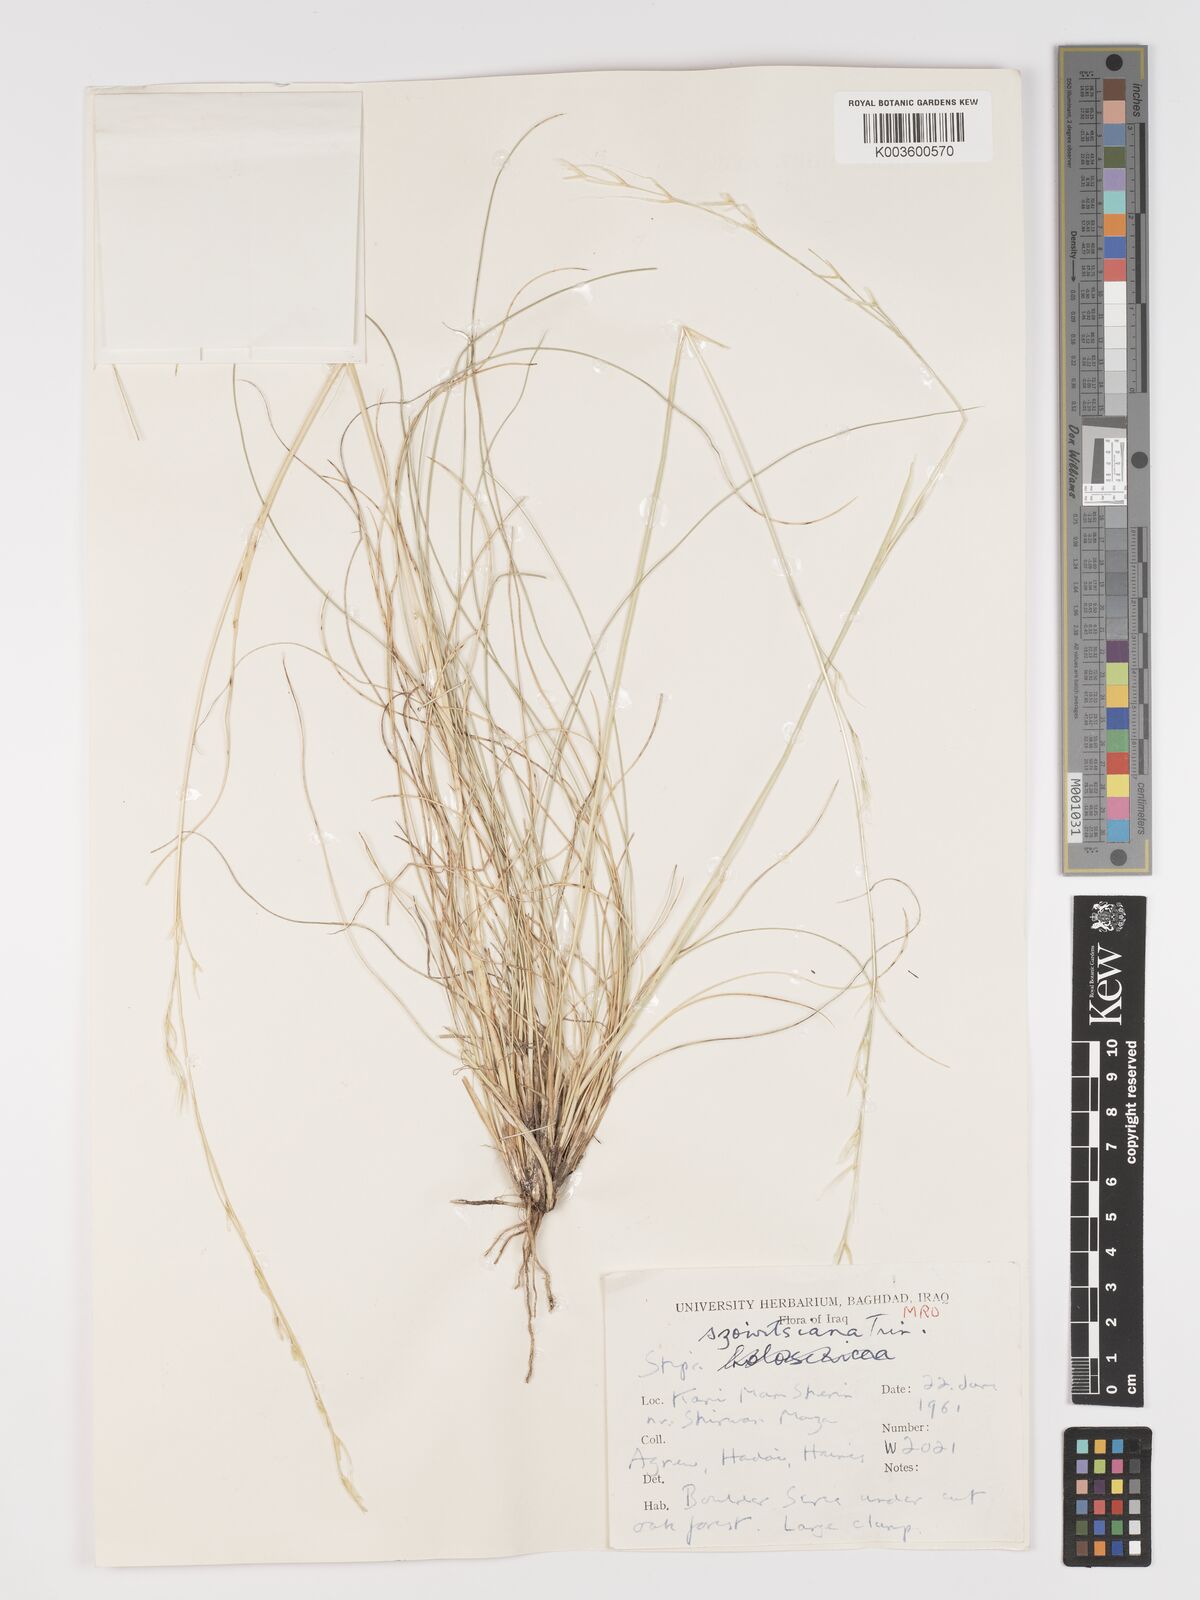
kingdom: Plantae
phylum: Tracheophyta
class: Liliopsida
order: Poales
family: Poaceae
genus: Stipa
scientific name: Stipa barbata
